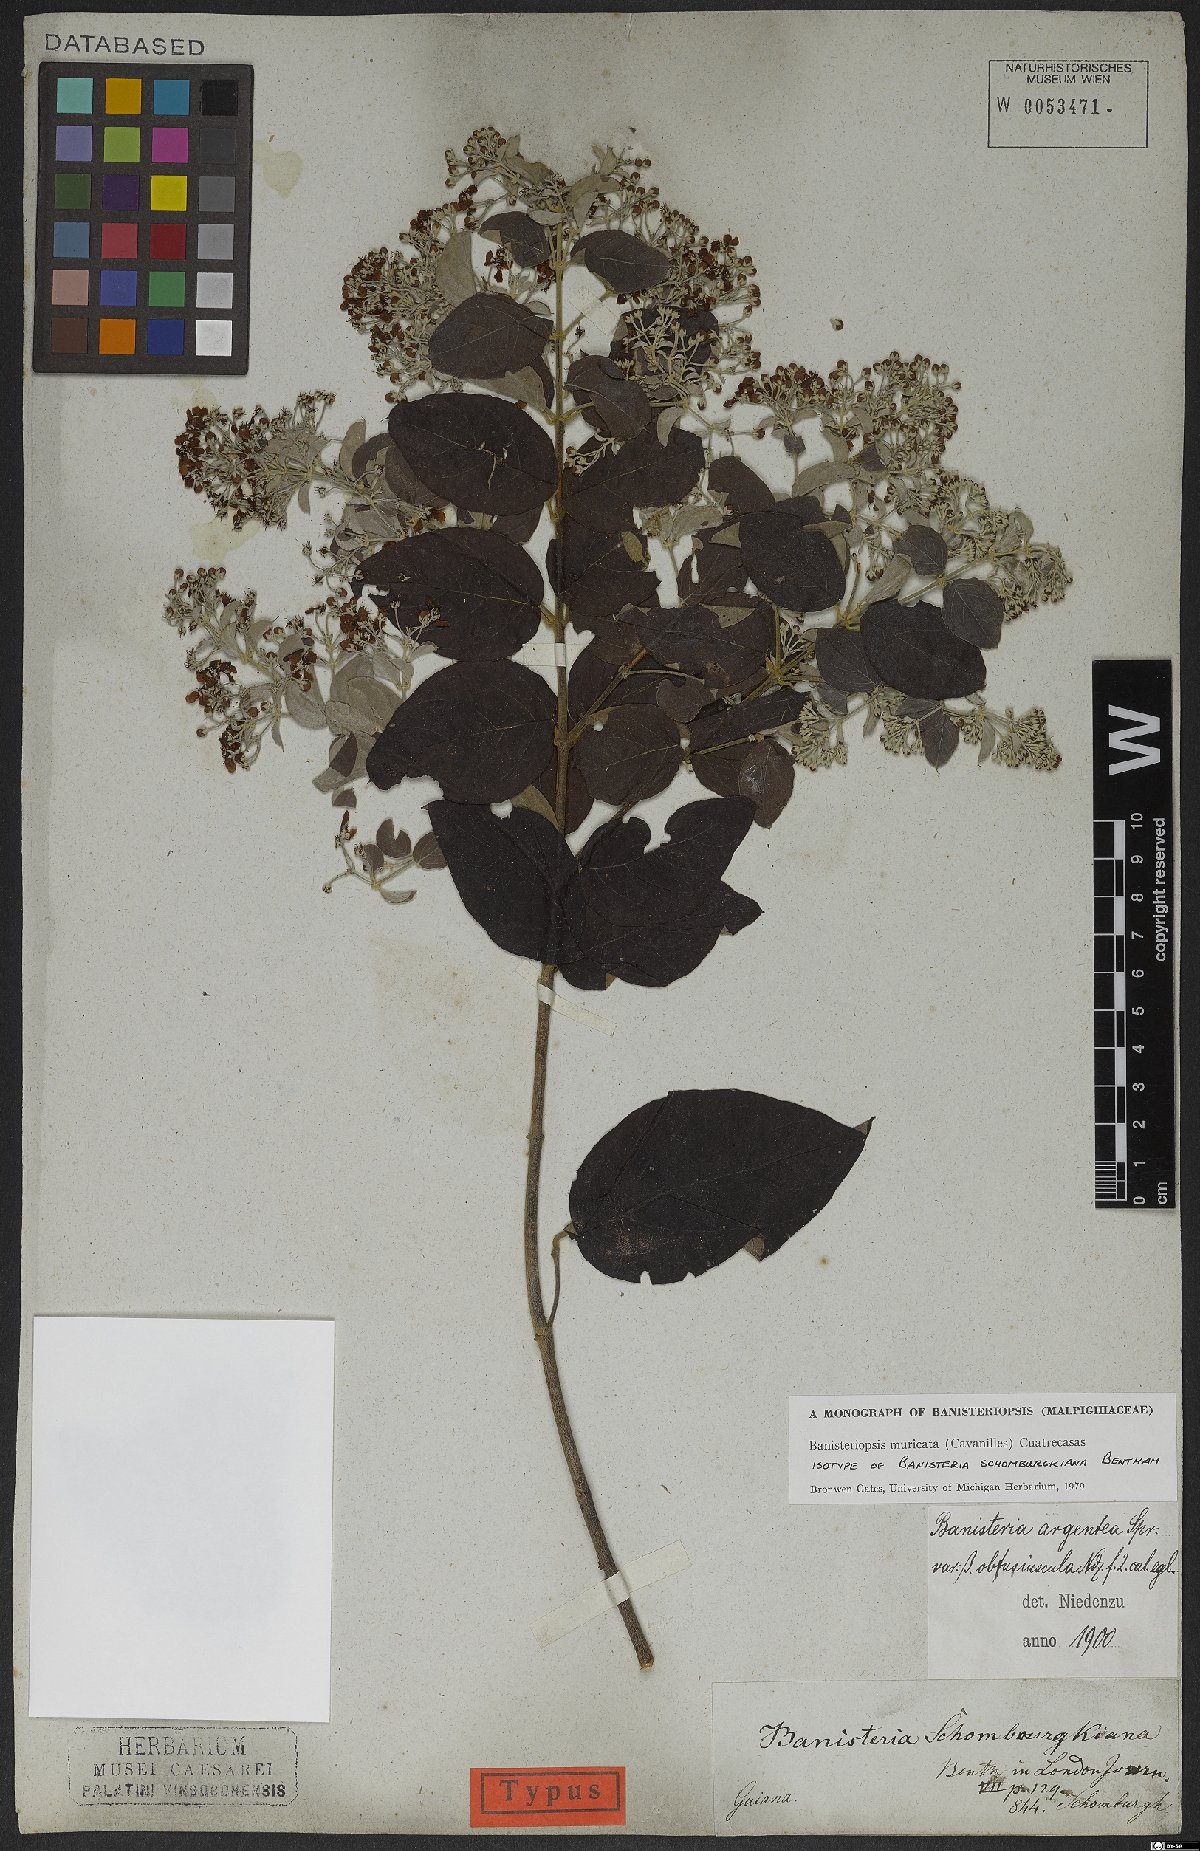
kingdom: Plantae
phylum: Tracheophyta
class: Magnoliopsida
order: Malpighiales
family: Malpighiaceae
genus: Banisteriopsis
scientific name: Banisteriopsis muricata
